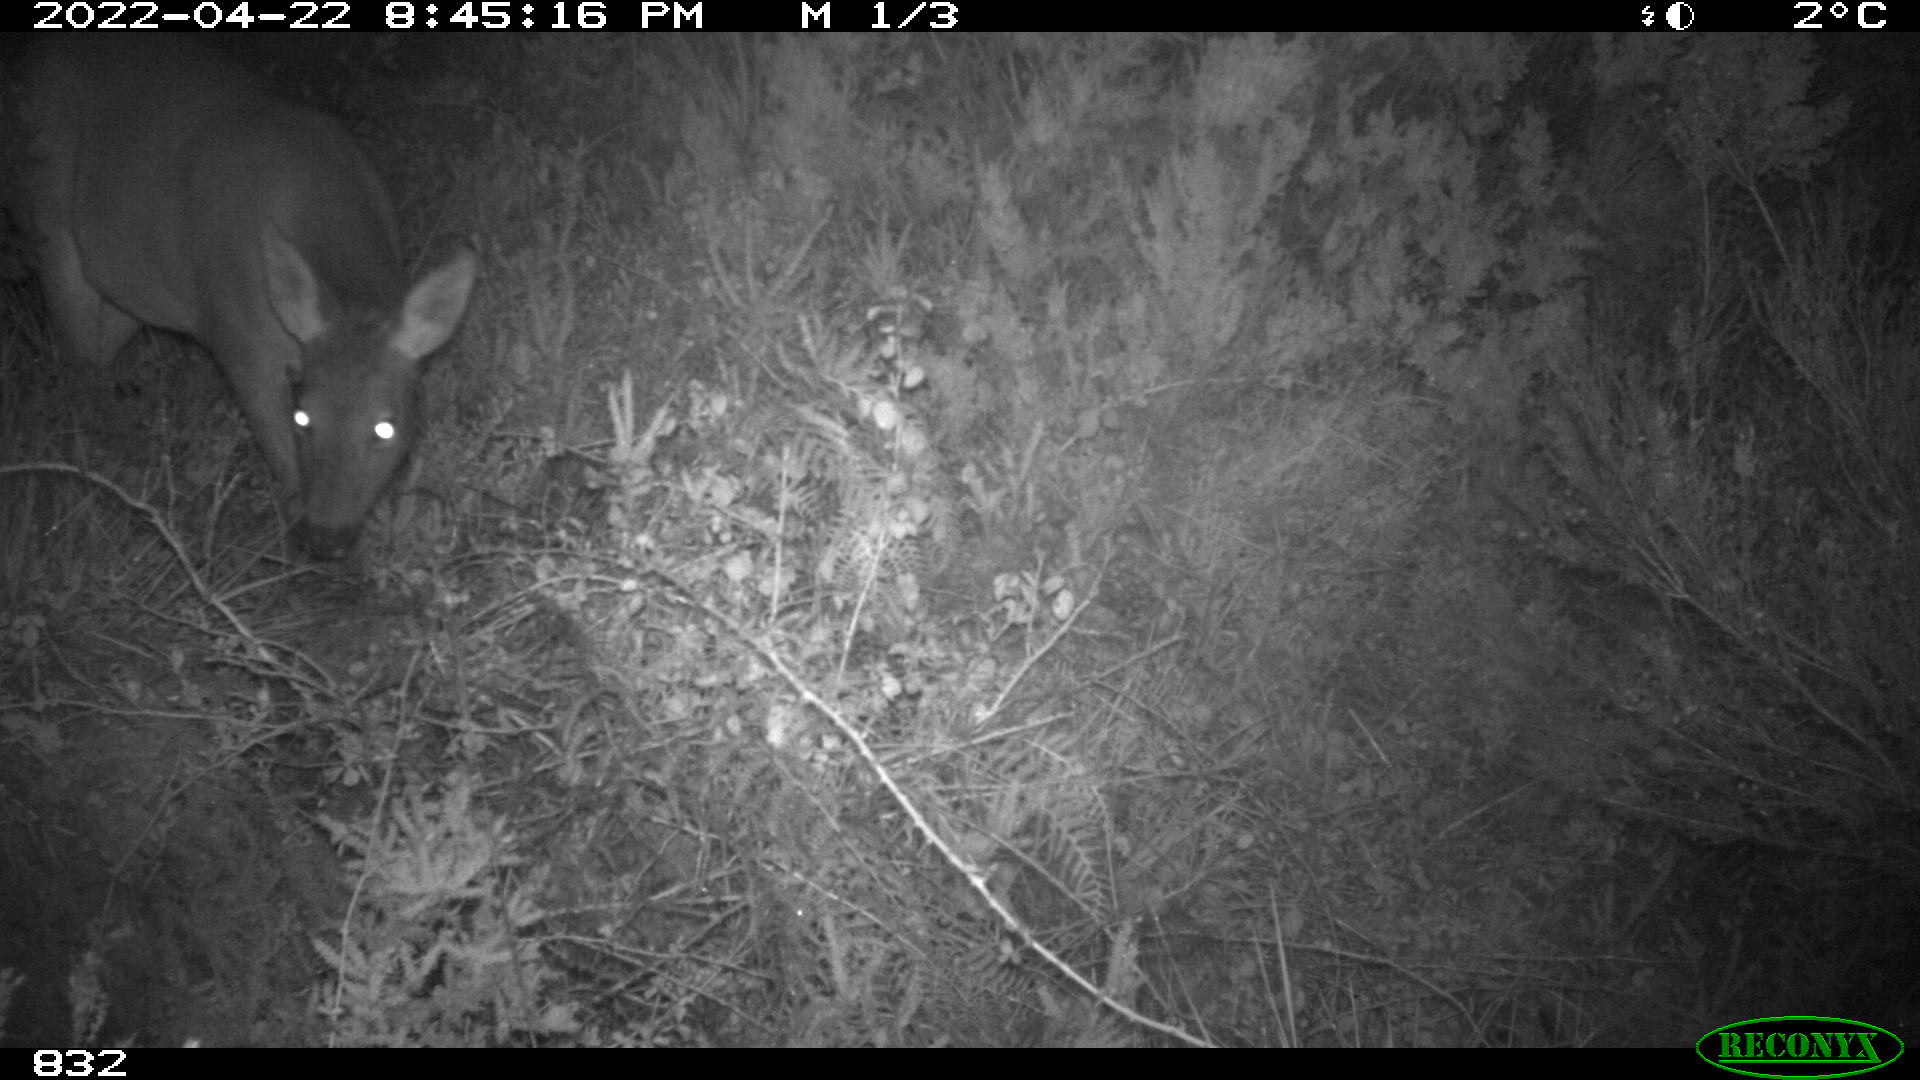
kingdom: Animalia
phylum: Chordata
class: Mammalia
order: Artiodactyla
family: Cervidae
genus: Capreolus
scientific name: Capreolus capreolus
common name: Western roe deer
